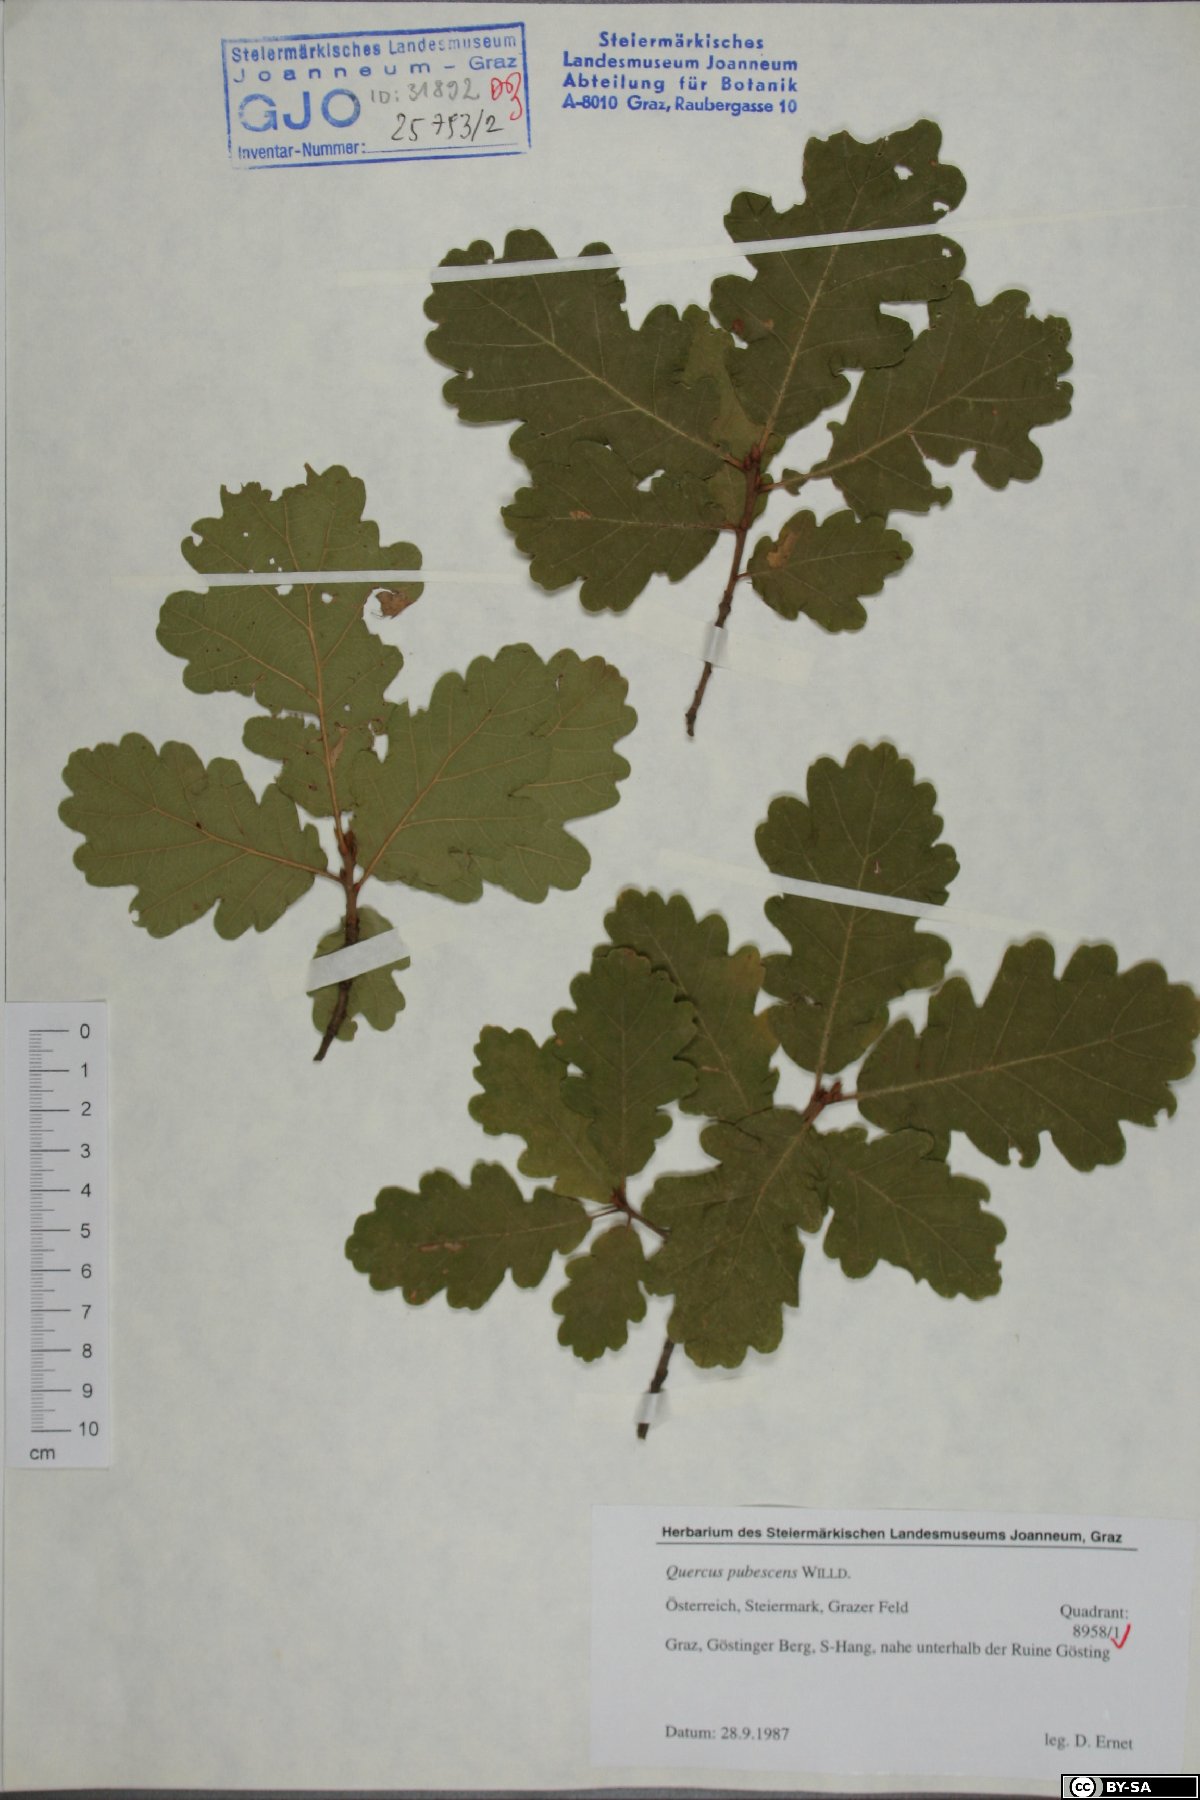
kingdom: Plantae
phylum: Tracheophyta
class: Magnoliopsida
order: Fagales
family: Fagaceae
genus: Quercus
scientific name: Quercus pubescens
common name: Downy oak
